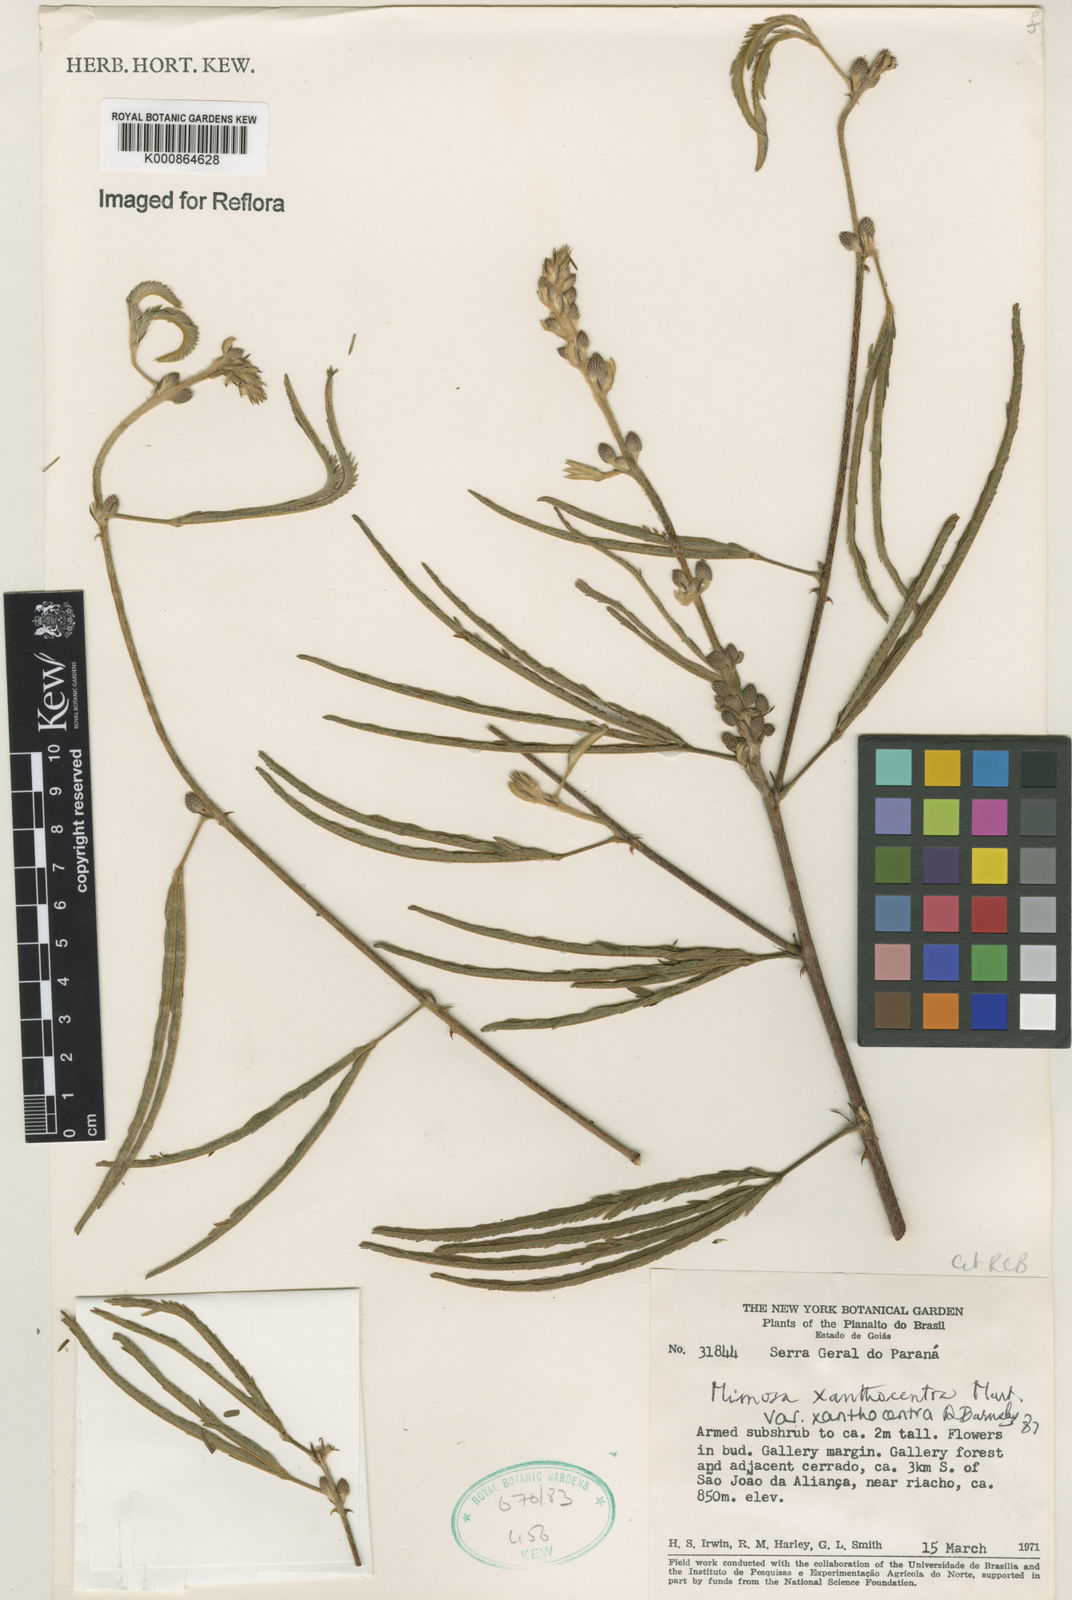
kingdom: Plantae
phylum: Tracheophyta
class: Magnoliopsida
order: Fabales
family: Fabaceae
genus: Mimosa
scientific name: Mimosa xanthocentra
